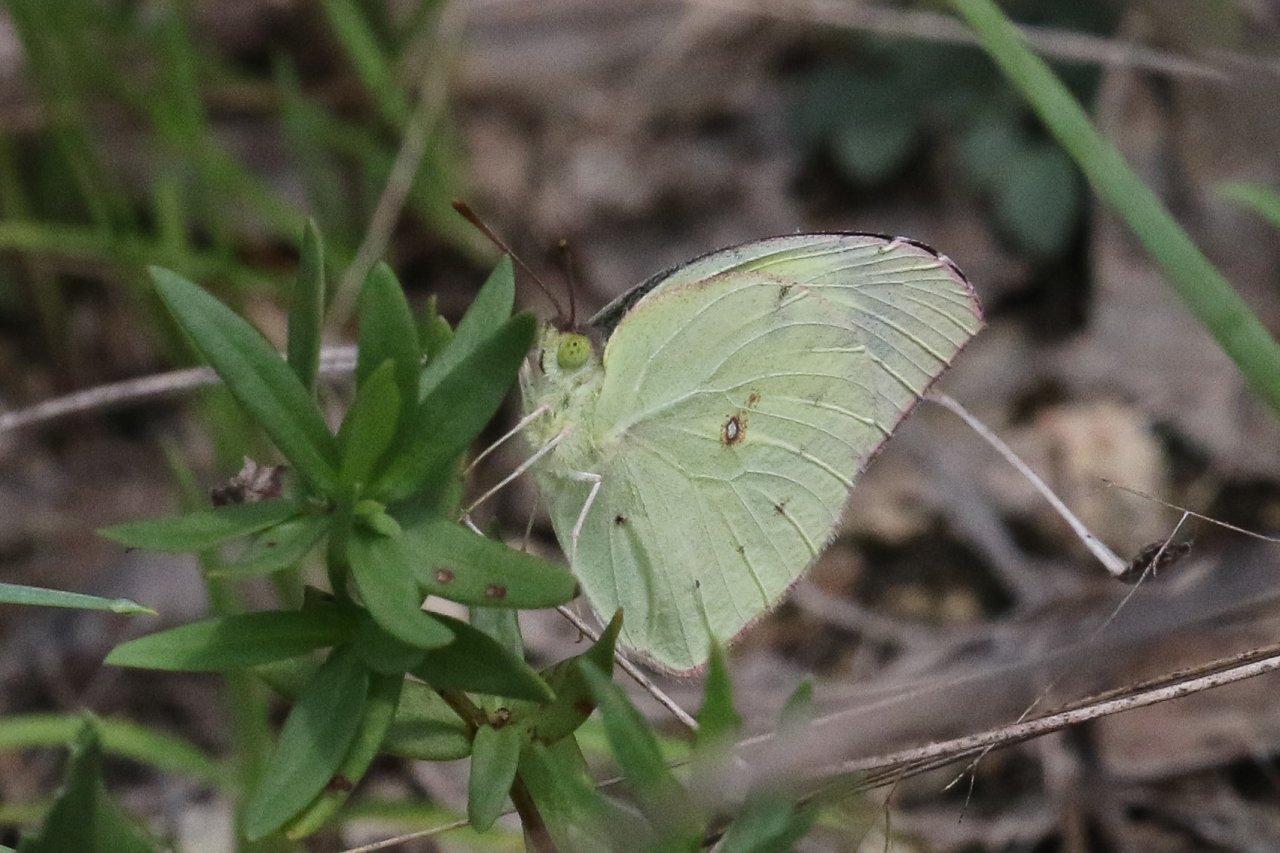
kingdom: Animalia
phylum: Arthropoda
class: Insecta
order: Lepidoptera
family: Pieridae
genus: Colias
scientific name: Colias philodice
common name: Clouded Sulphur
